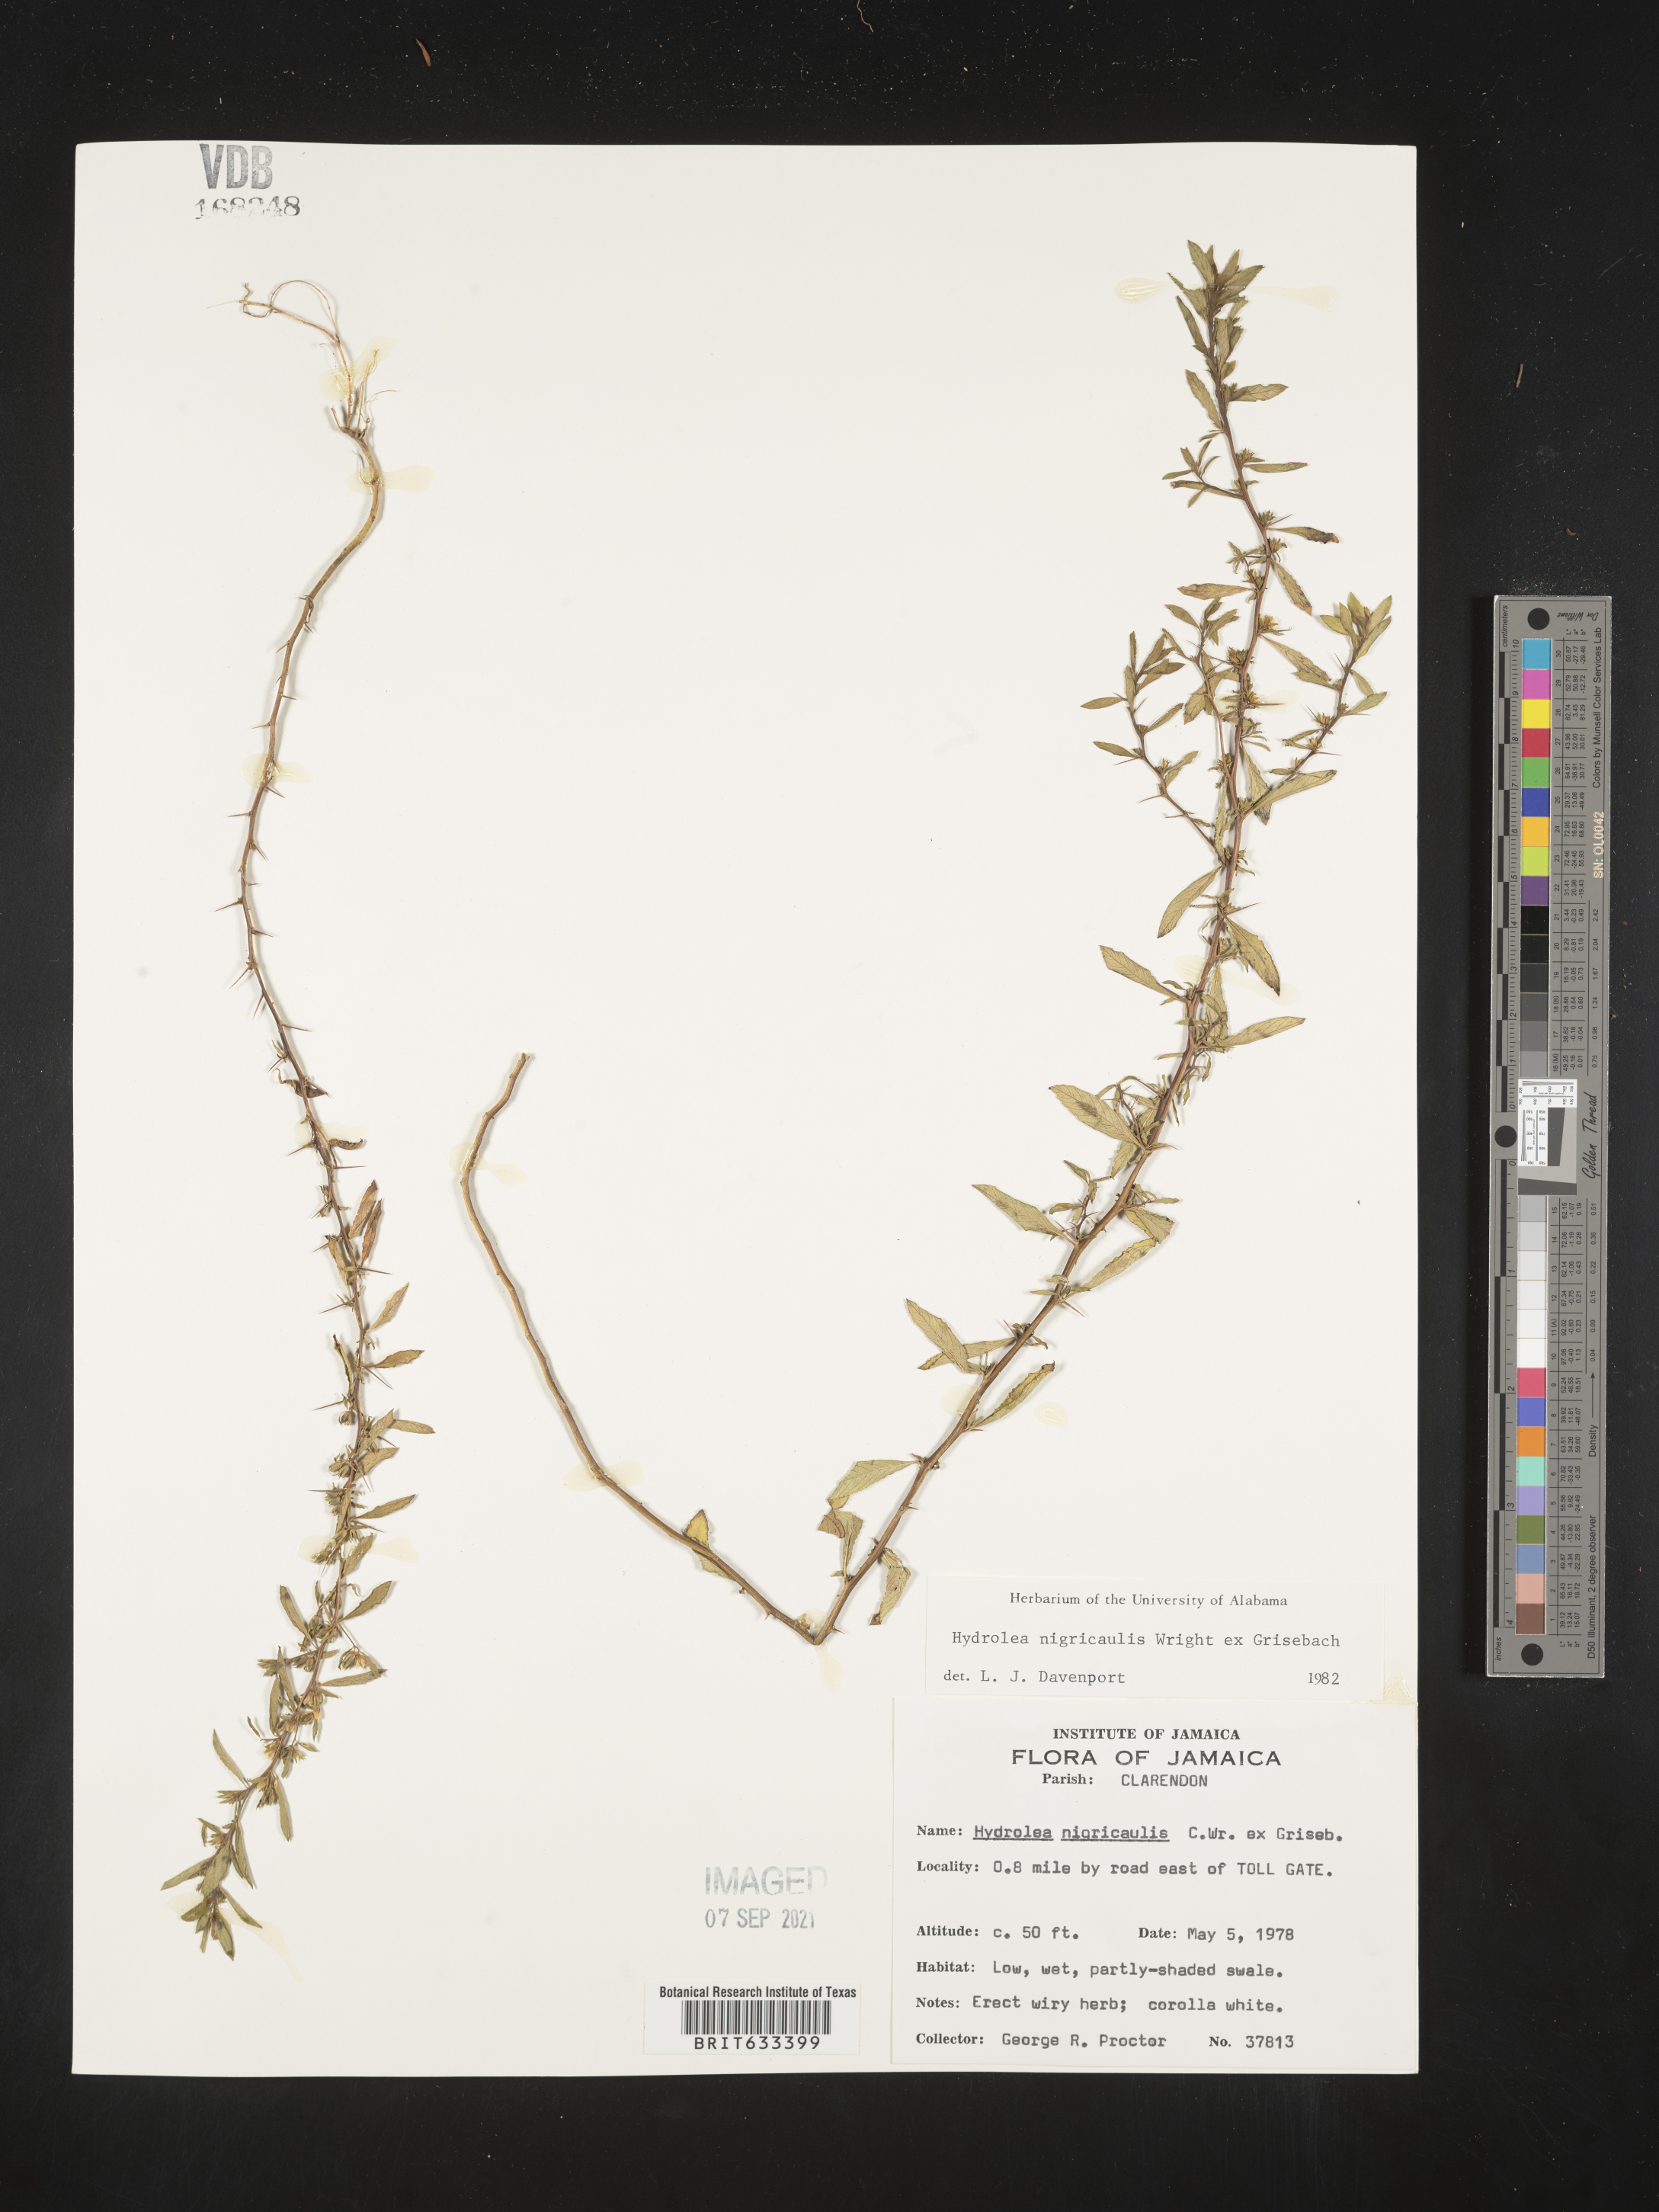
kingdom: Plantae
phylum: Tracheophyta
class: Magnoliopsida
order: Solanales
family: Hydroleaceae
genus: Hydrolea
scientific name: Hydrolea
